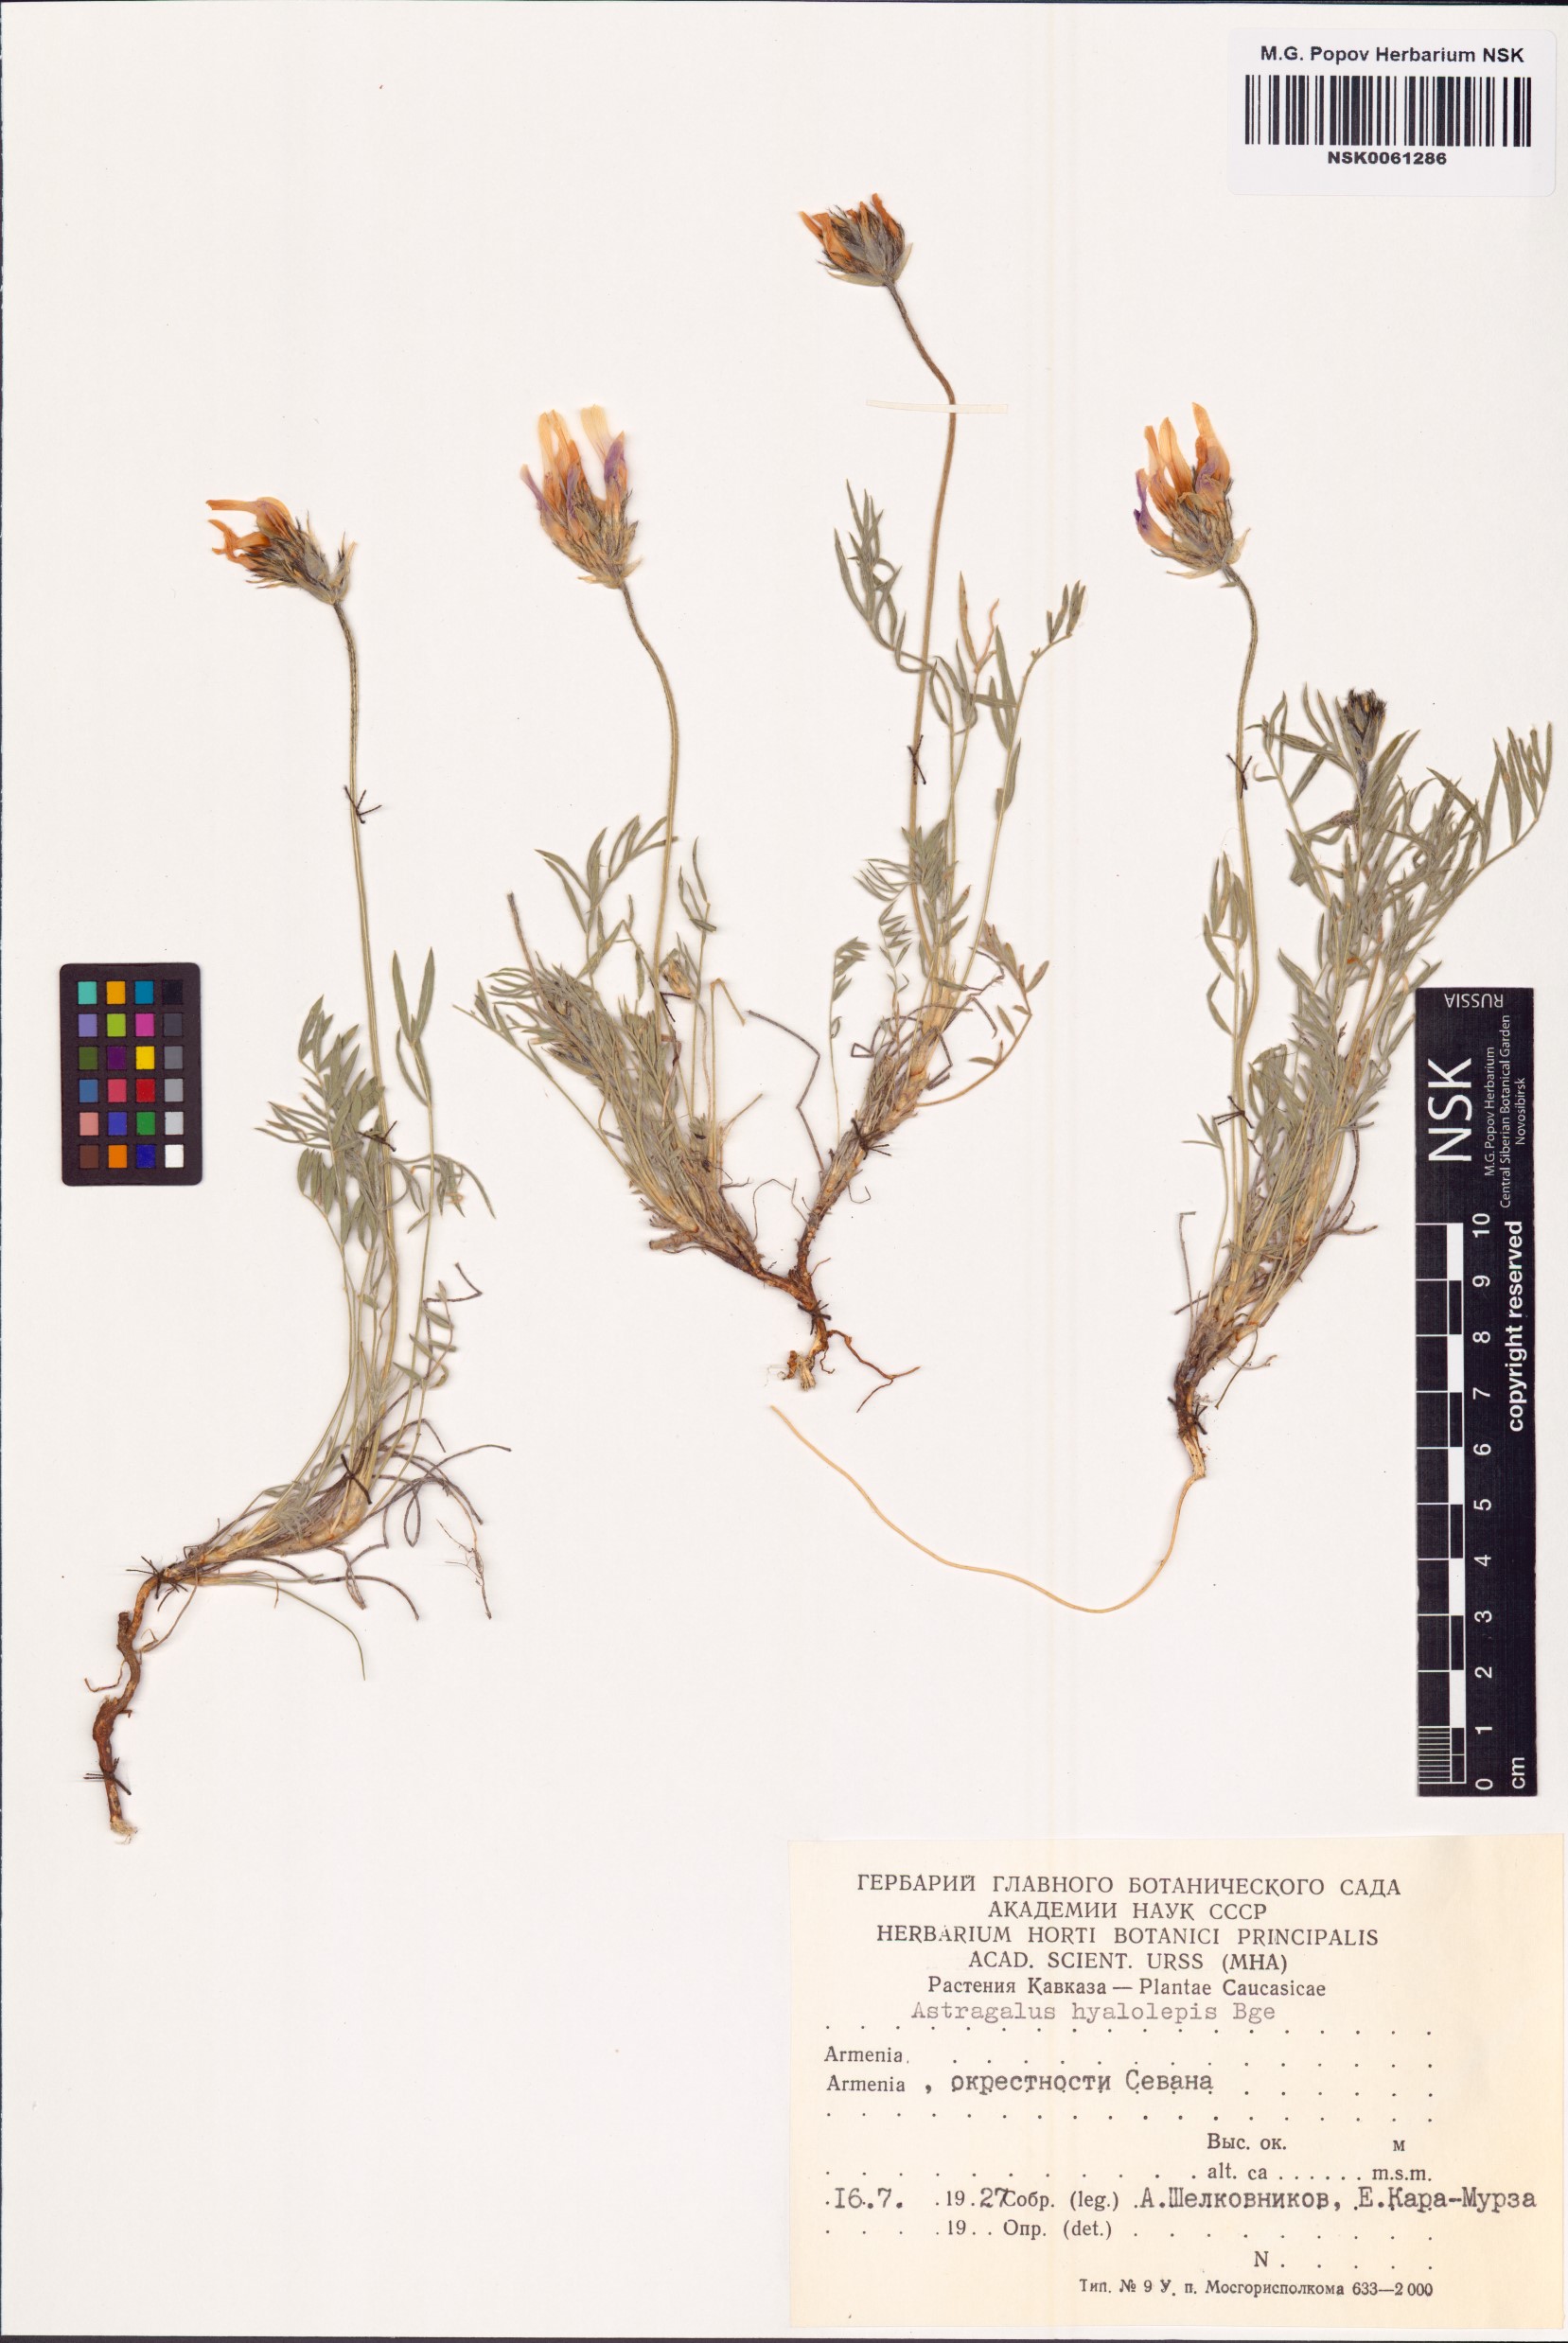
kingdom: Plantae
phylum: Tracheophyta
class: Magnoliopsida
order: Fabales
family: Fabaceae
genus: Astragalus
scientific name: Astragalus subcaulescens
